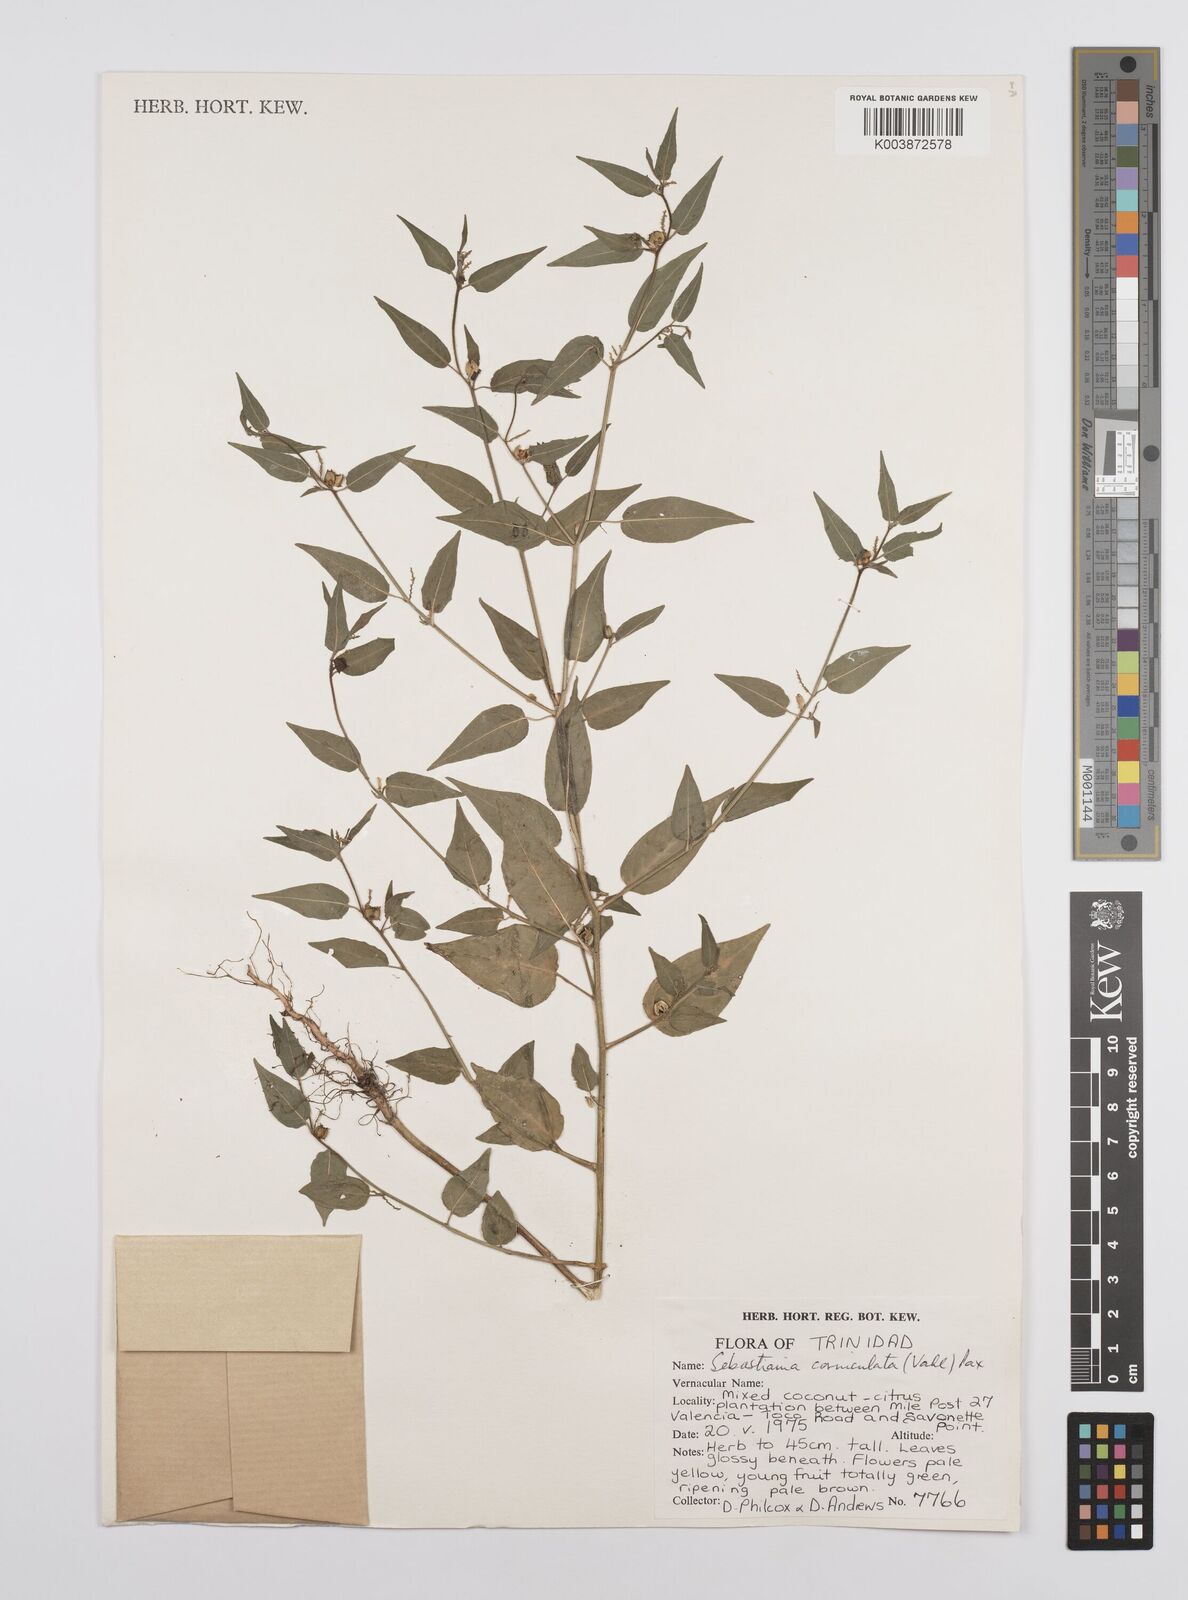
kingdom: Plantae
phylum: Tracheophyta
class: Magnoliopsida
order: Malpighiales
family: Euphorbiaceae
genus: Microstachys
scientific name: Microstachys corniculata
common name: Hato tejas
